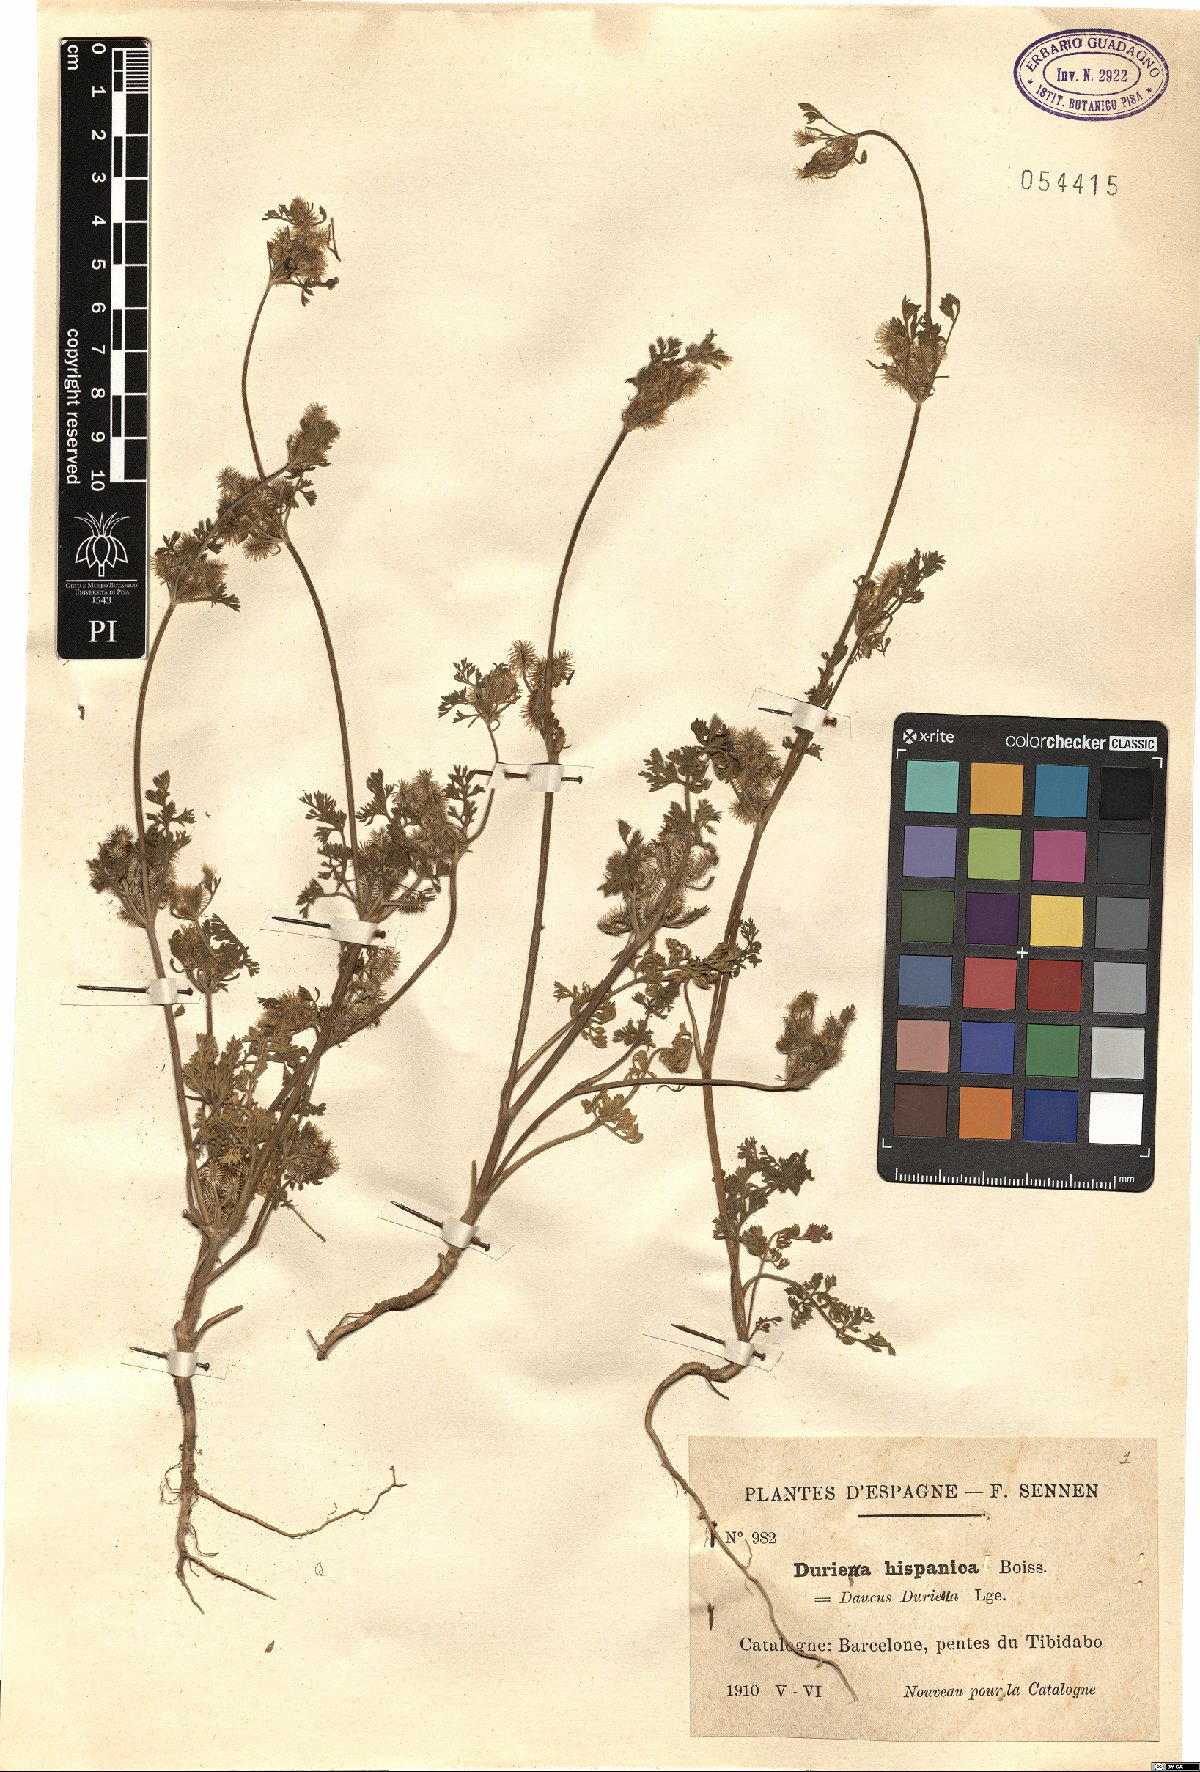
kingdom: Plantae
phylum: Tracheophyta
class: Magnoliopsida
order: Apiales
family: Apiaceae
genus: Daucus
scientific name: Daucus durieua
